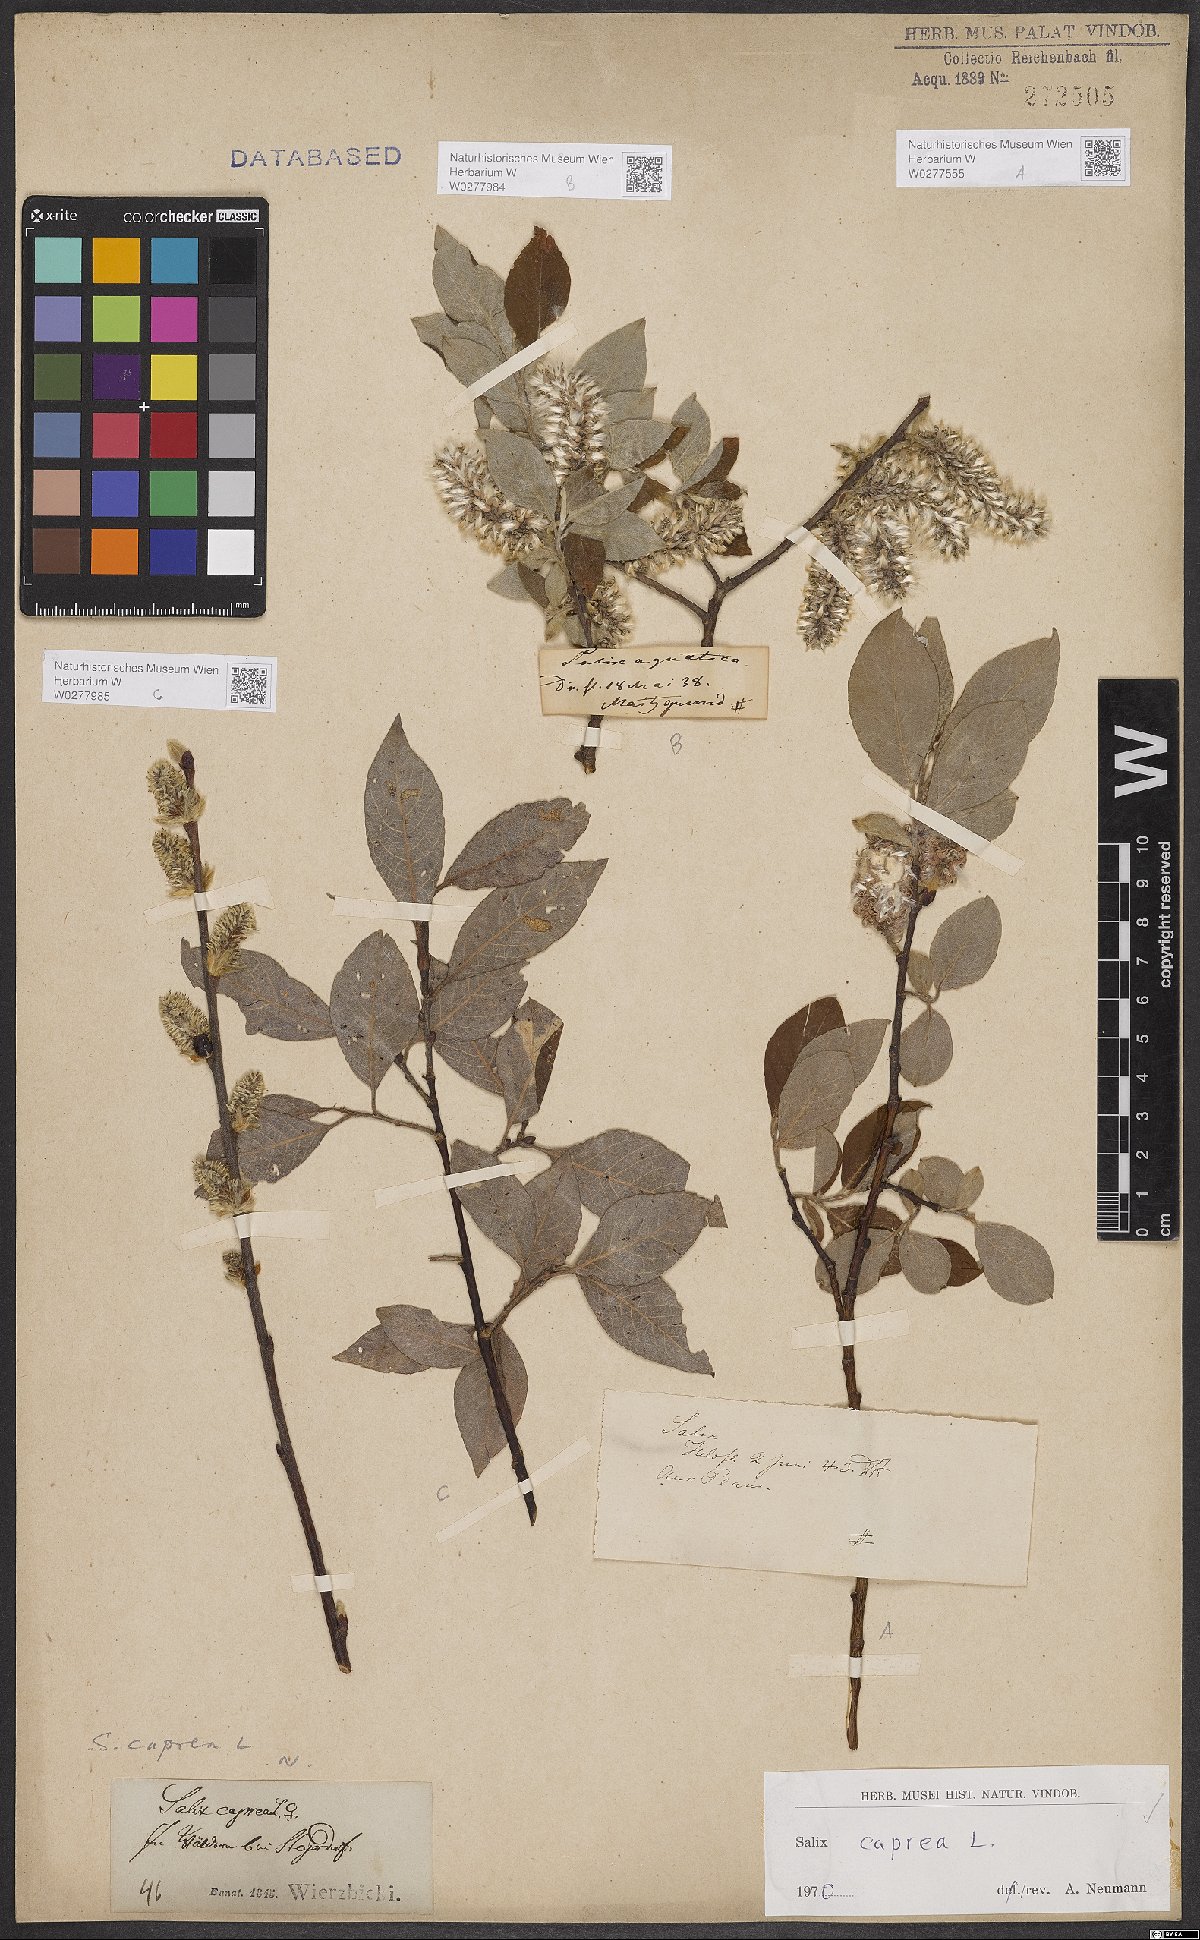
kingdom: Plantae
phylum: Tracheophyta
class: Magnoliopsida
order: Malpighiales
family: Salicaceae
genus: Salix
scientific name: Salix caprea
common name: Goat willow
